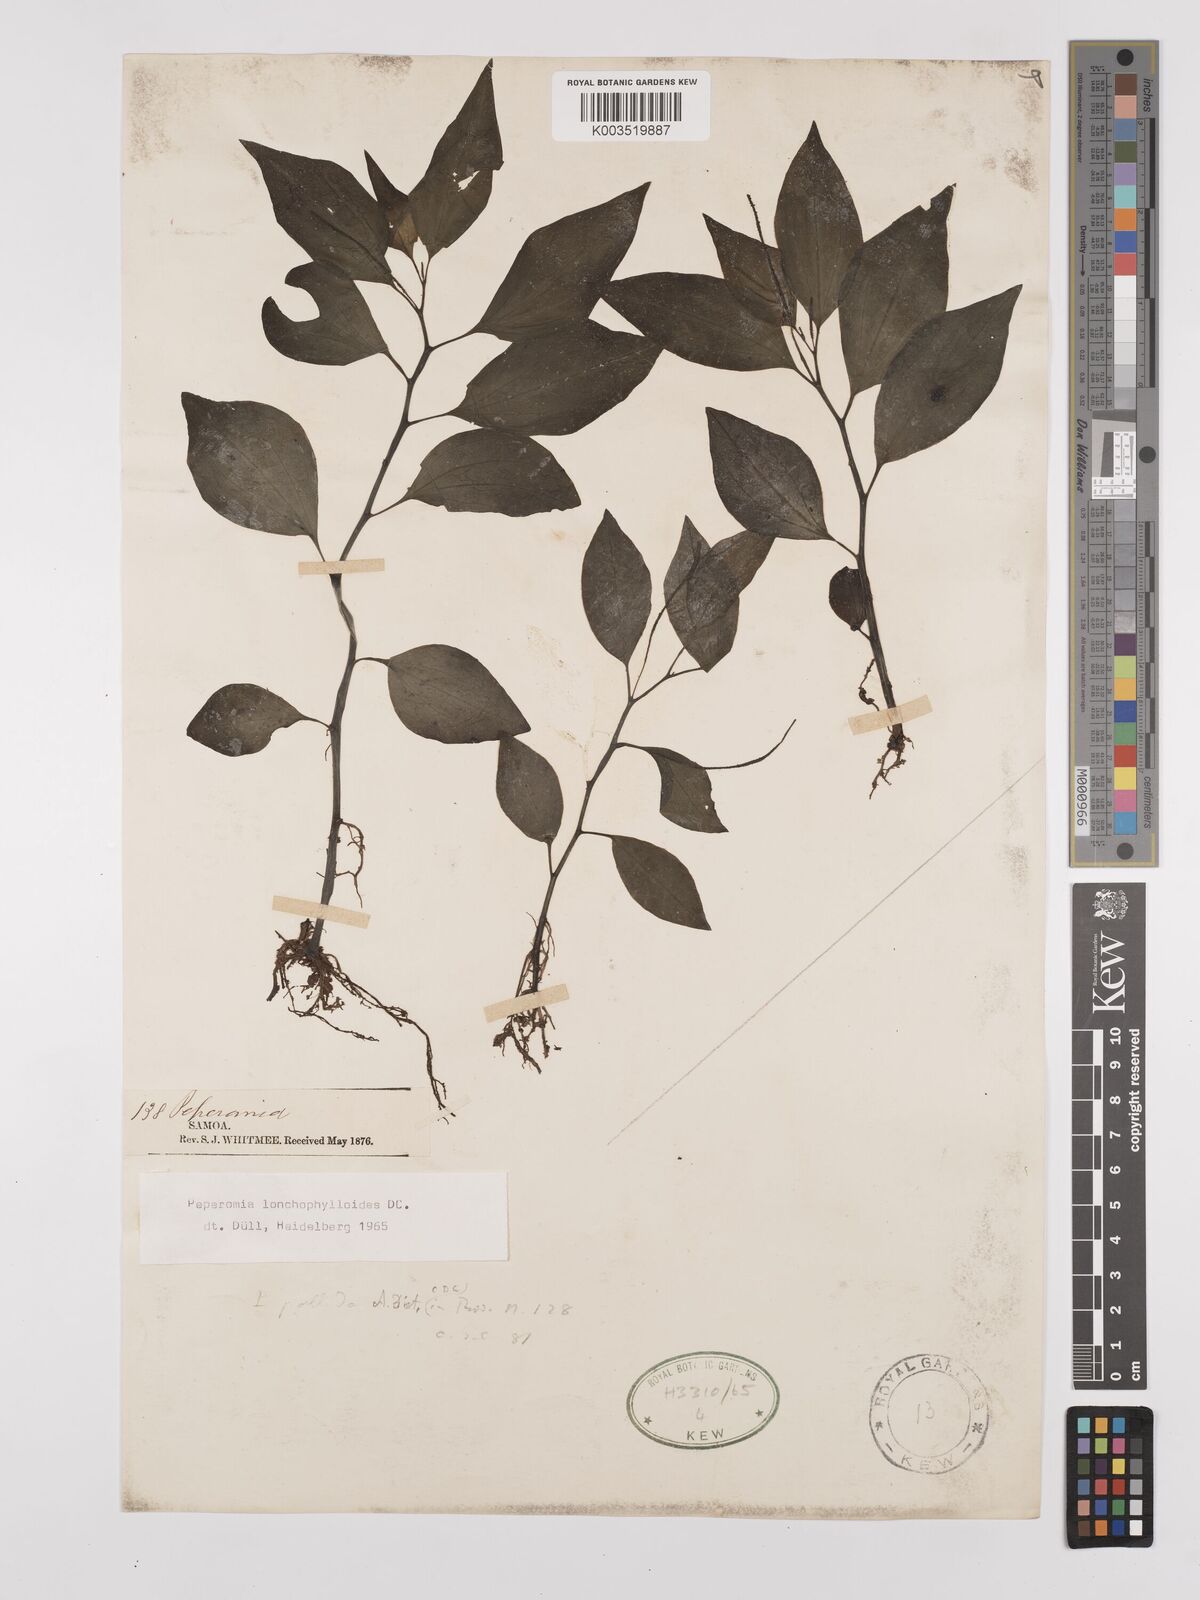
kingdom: Plantae
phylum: Tracheophyta
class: Magnoliopsida
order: Piperales
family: Piperaceae
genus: Peperomia
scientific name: Peperomia oahuensis
